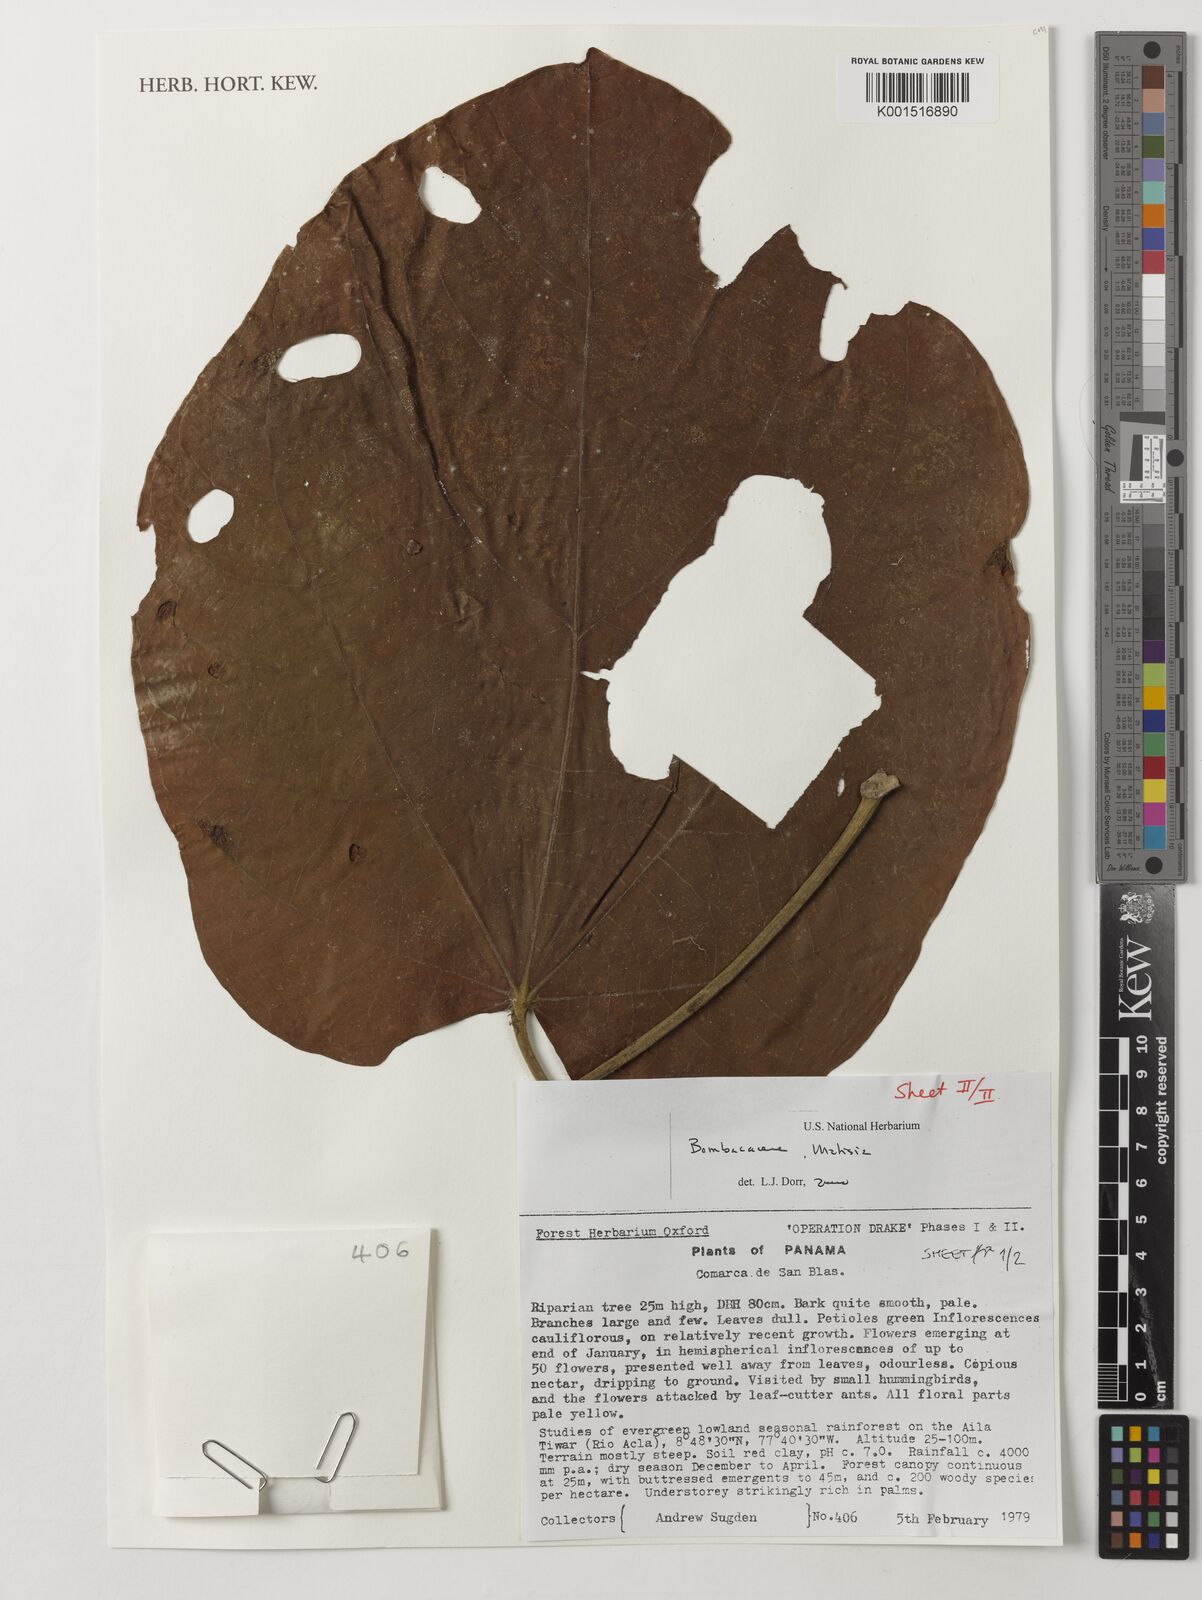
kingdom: Plantae
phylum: Tracheophyta
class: Magnoliopsida
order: Malvales
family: Malvaceae
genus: Matisia
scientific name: Matisia
